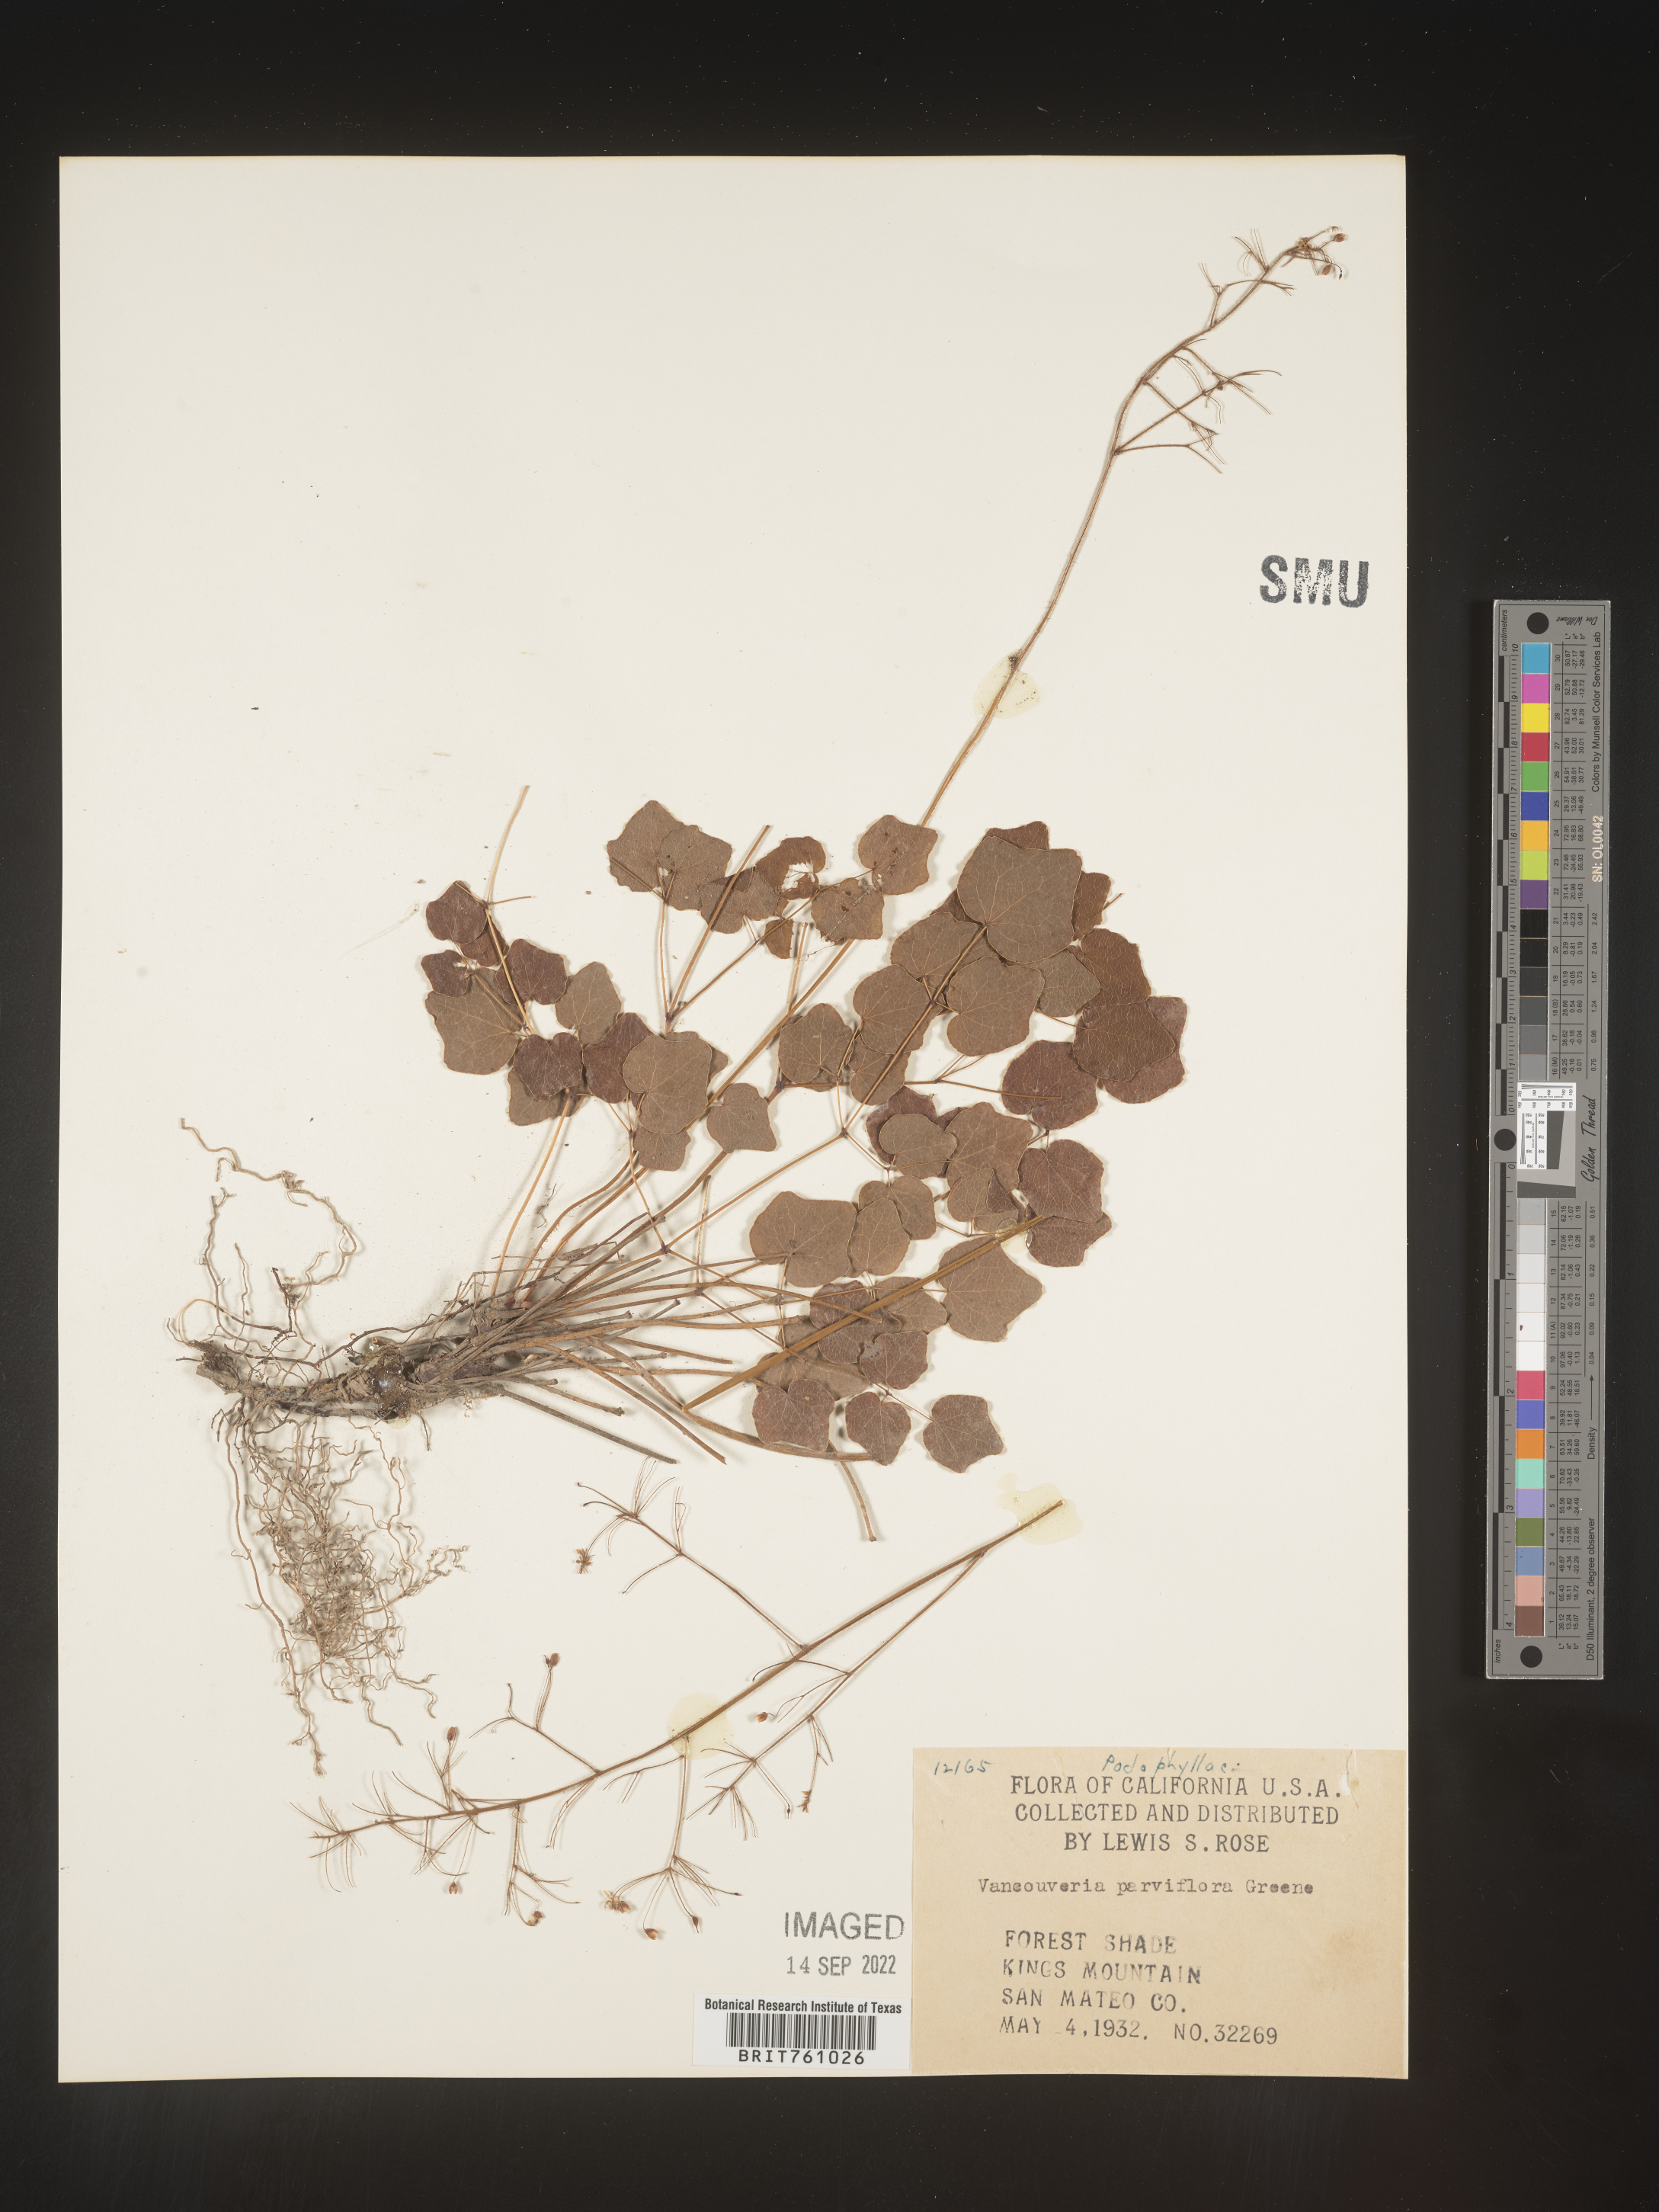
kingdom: Plantae
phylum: Tracheophyta
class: Magnoliopsida
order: Ranunculales
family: Berberidaceae
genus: Vancouveria
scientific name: Vancouveria
